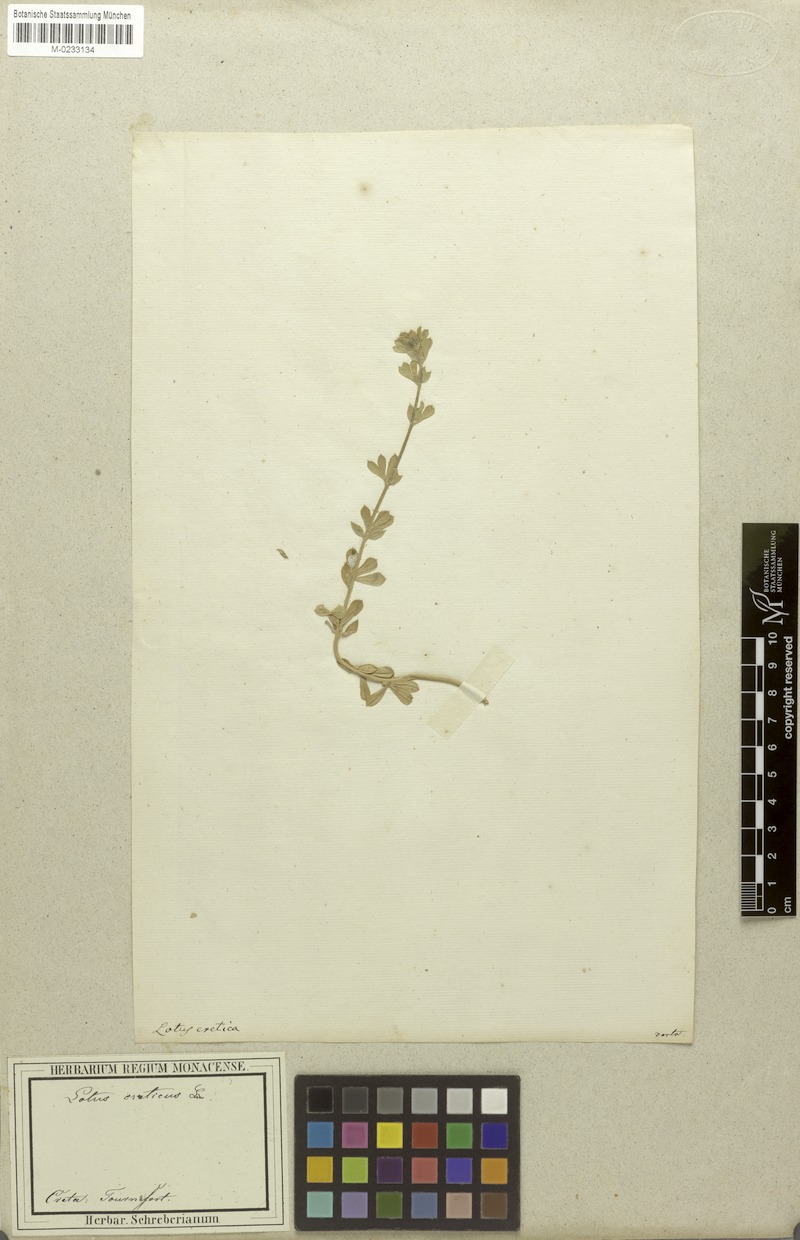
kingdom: Plantae
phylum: Tracheophyta
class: Magnoliopsida
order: Fabales
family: Fabaceae
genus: Lotus
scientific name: Lotus creticus
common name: Cretan bird's-foot trefoil
